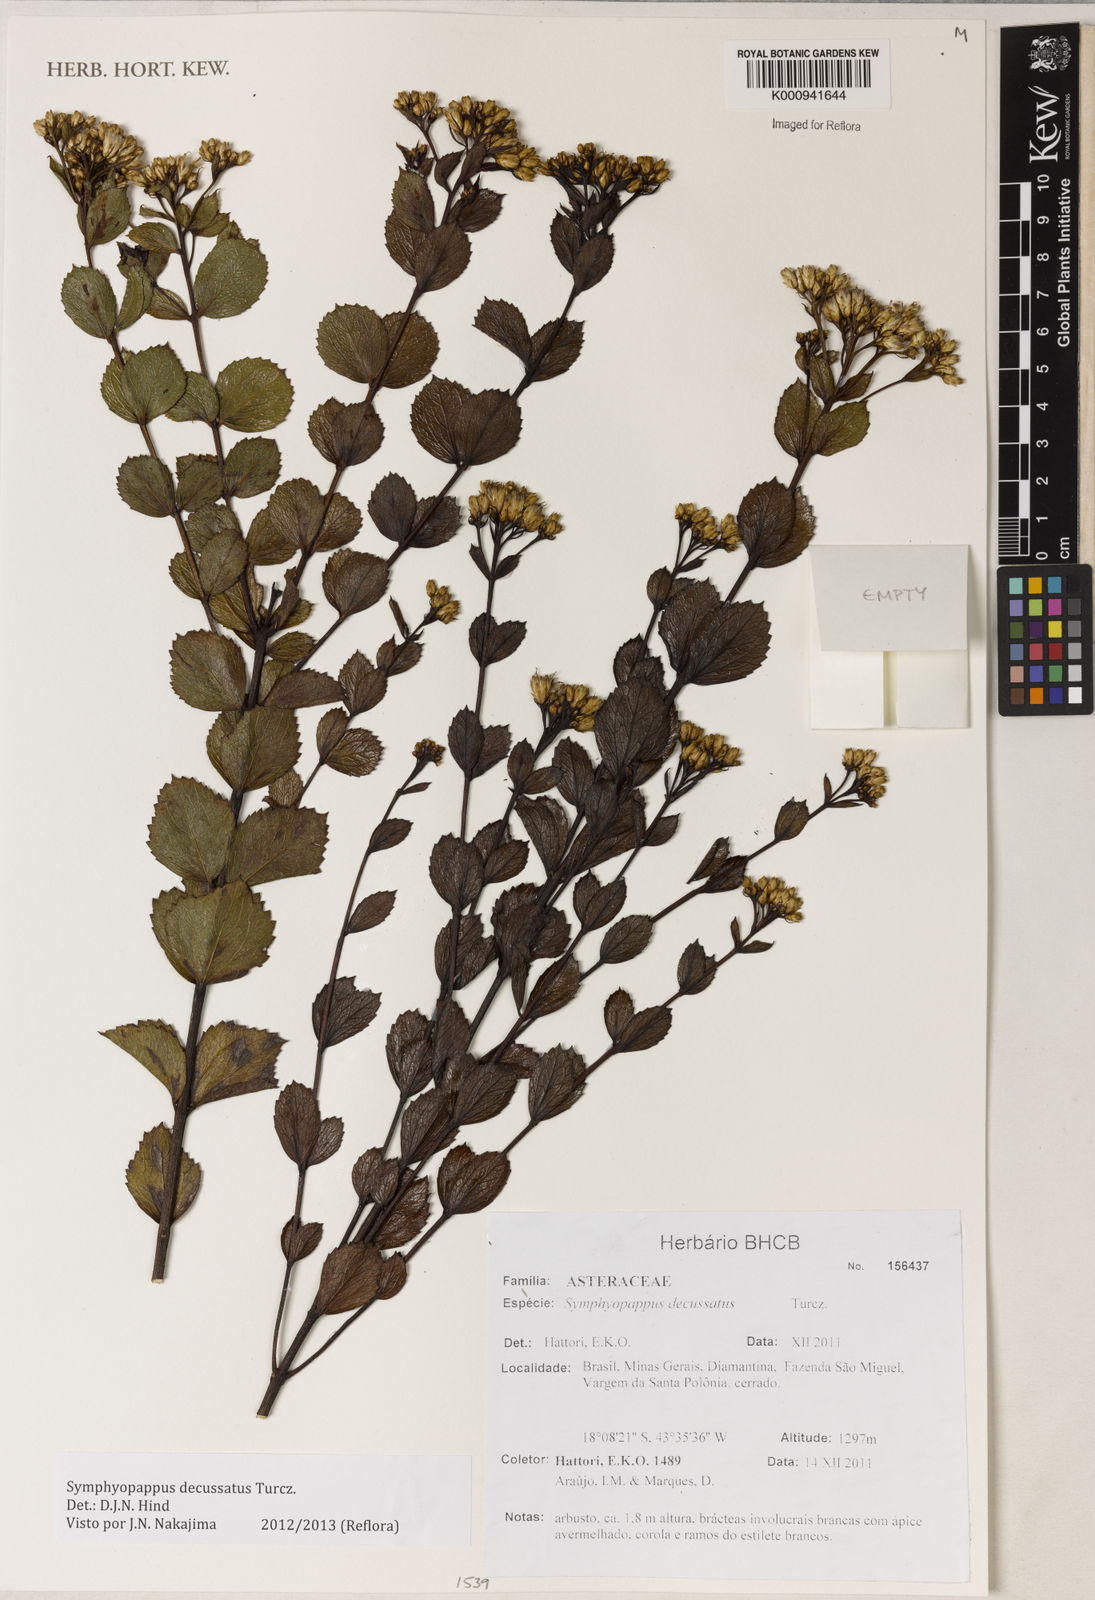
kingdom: Plantae
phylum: Tracheophyta
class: Magnoliopsida
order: Asterales
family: Asteraceae
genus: Symphyopappus
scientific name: Symphyopappus decussatus
